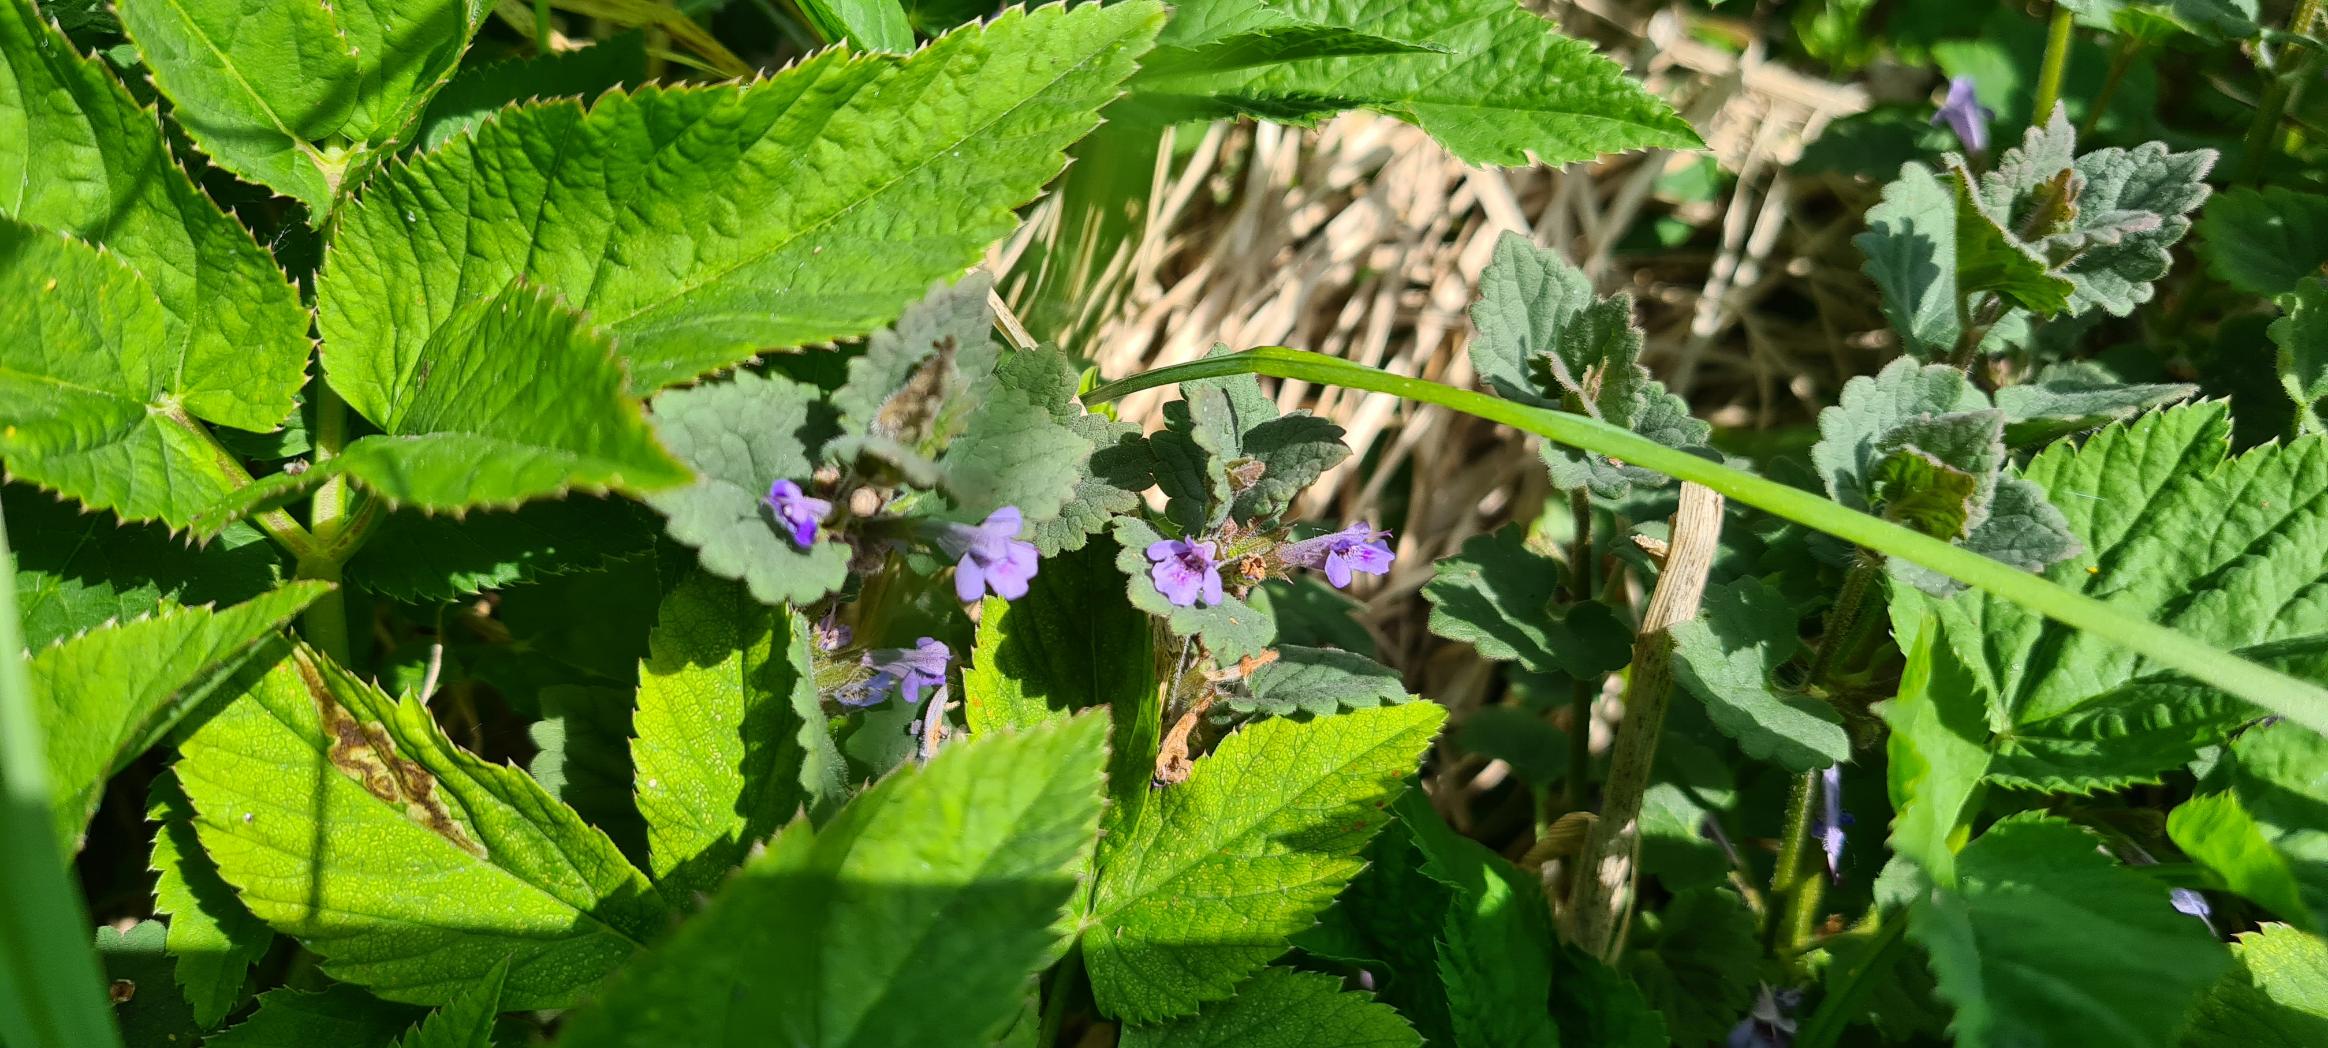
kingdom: Plantae
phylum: Tracheophyta
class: Magnoliopsida
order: Lamiales
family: Lamiaceae
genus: Glechoma
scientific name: Glechoma hederacea
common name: Korsknap
